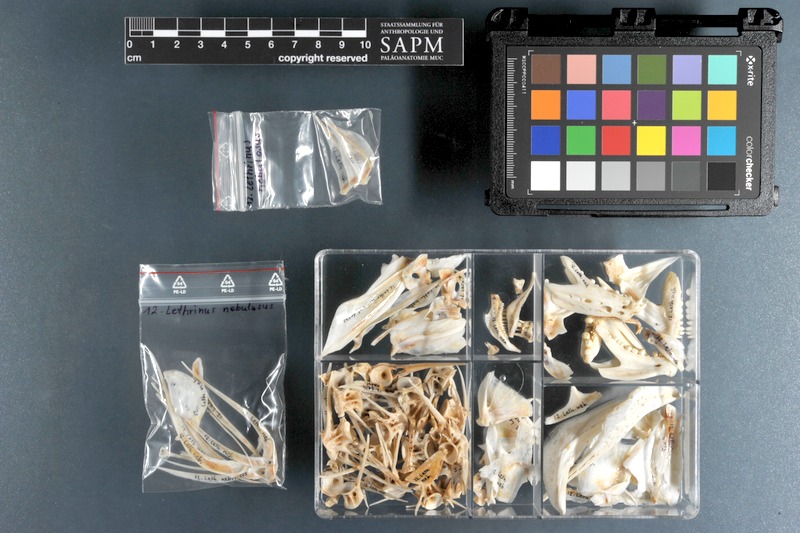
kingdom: Animalia
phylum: Chordata
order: Perciformes
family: Lethrinidae
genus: Lethrinus
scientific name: Lethrinus nebulosus
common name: Spangled emperor
